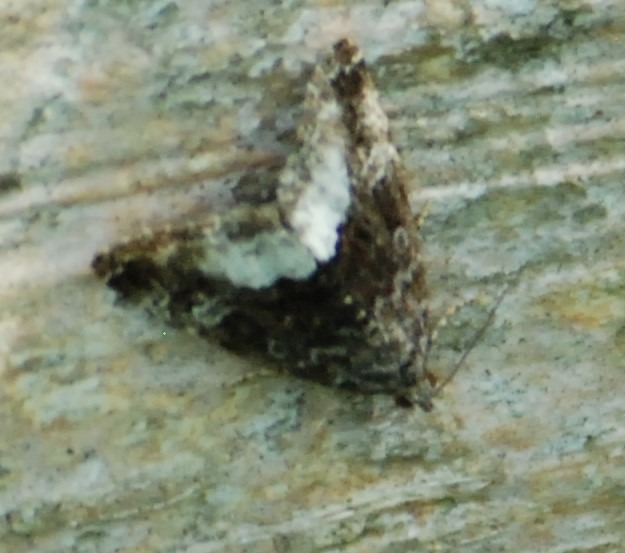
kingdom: Animalia
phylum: Arthropoda
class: Insecta
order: Lepidoptera
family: Noctuidae
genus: Deltote
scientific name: Deltote pygarga
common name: Hvidhjørnet dagugle
